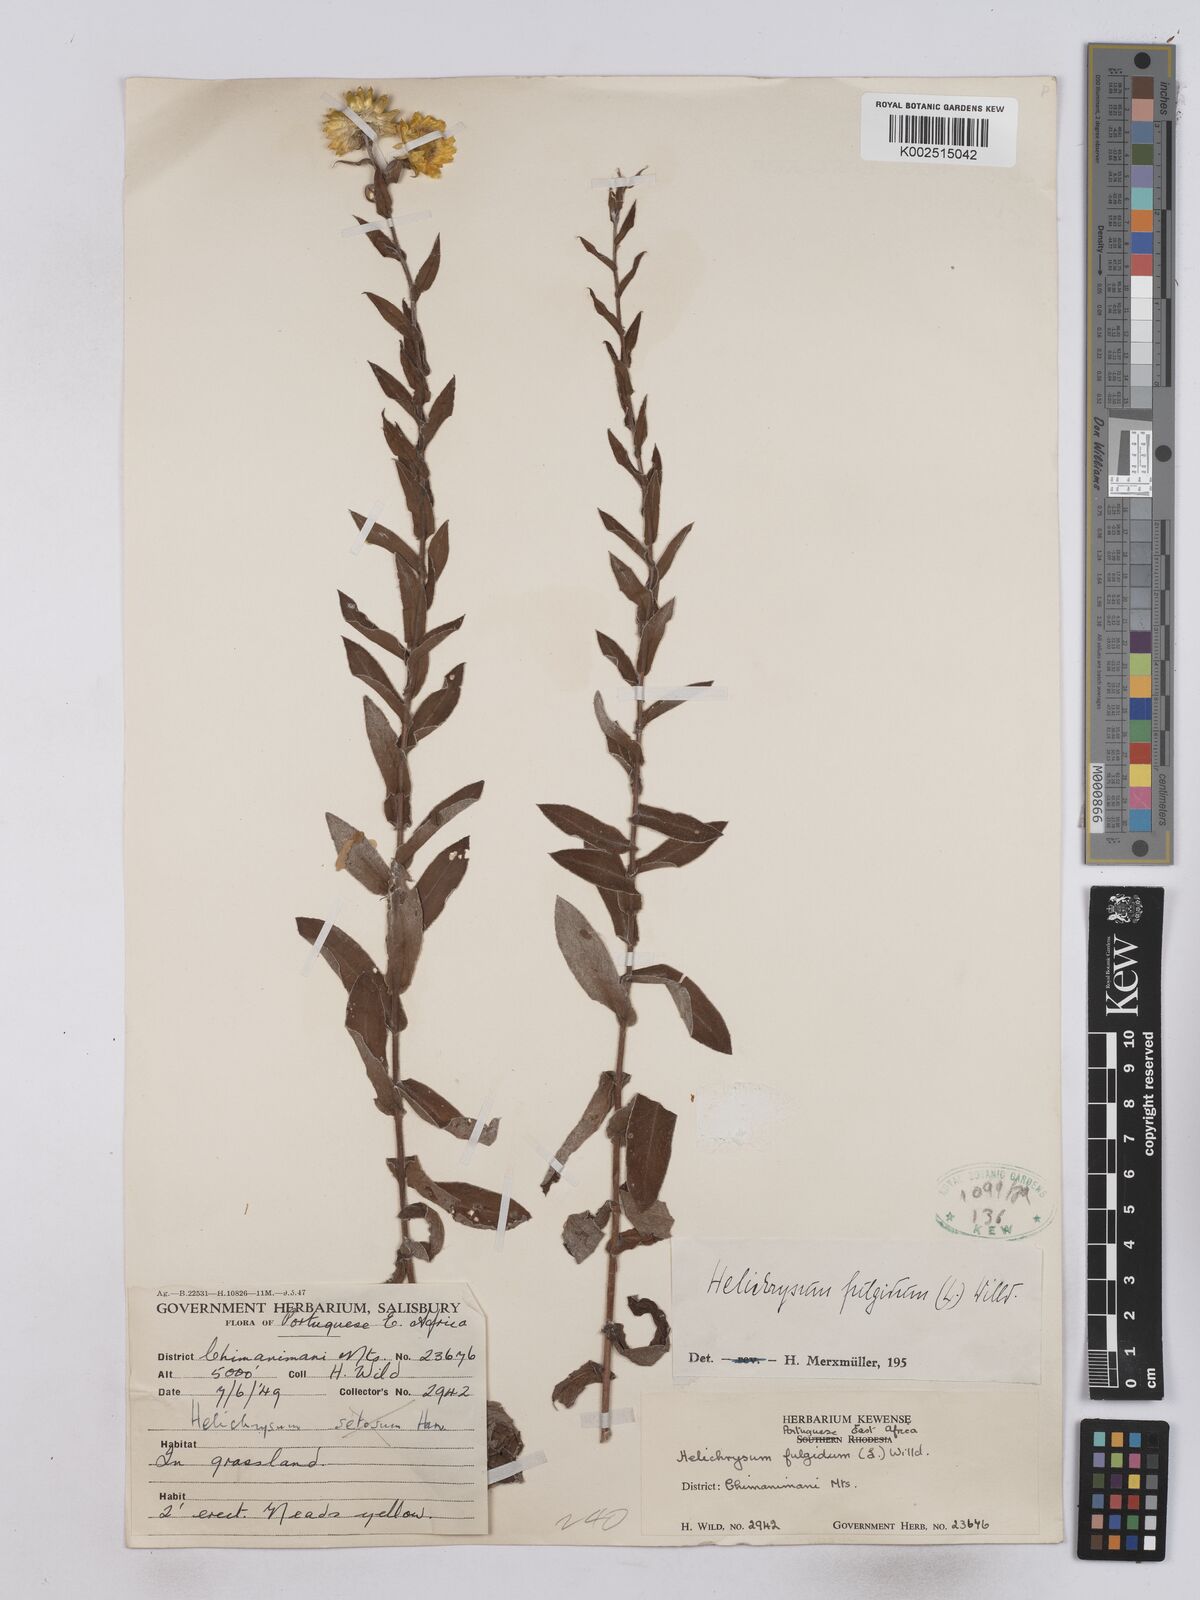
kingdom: Plantae
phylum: Tracheophyta
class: Magnoliopsida
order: Asterales
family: Asteraceae
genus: Helichrysum
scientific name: Helichrysum setosum
